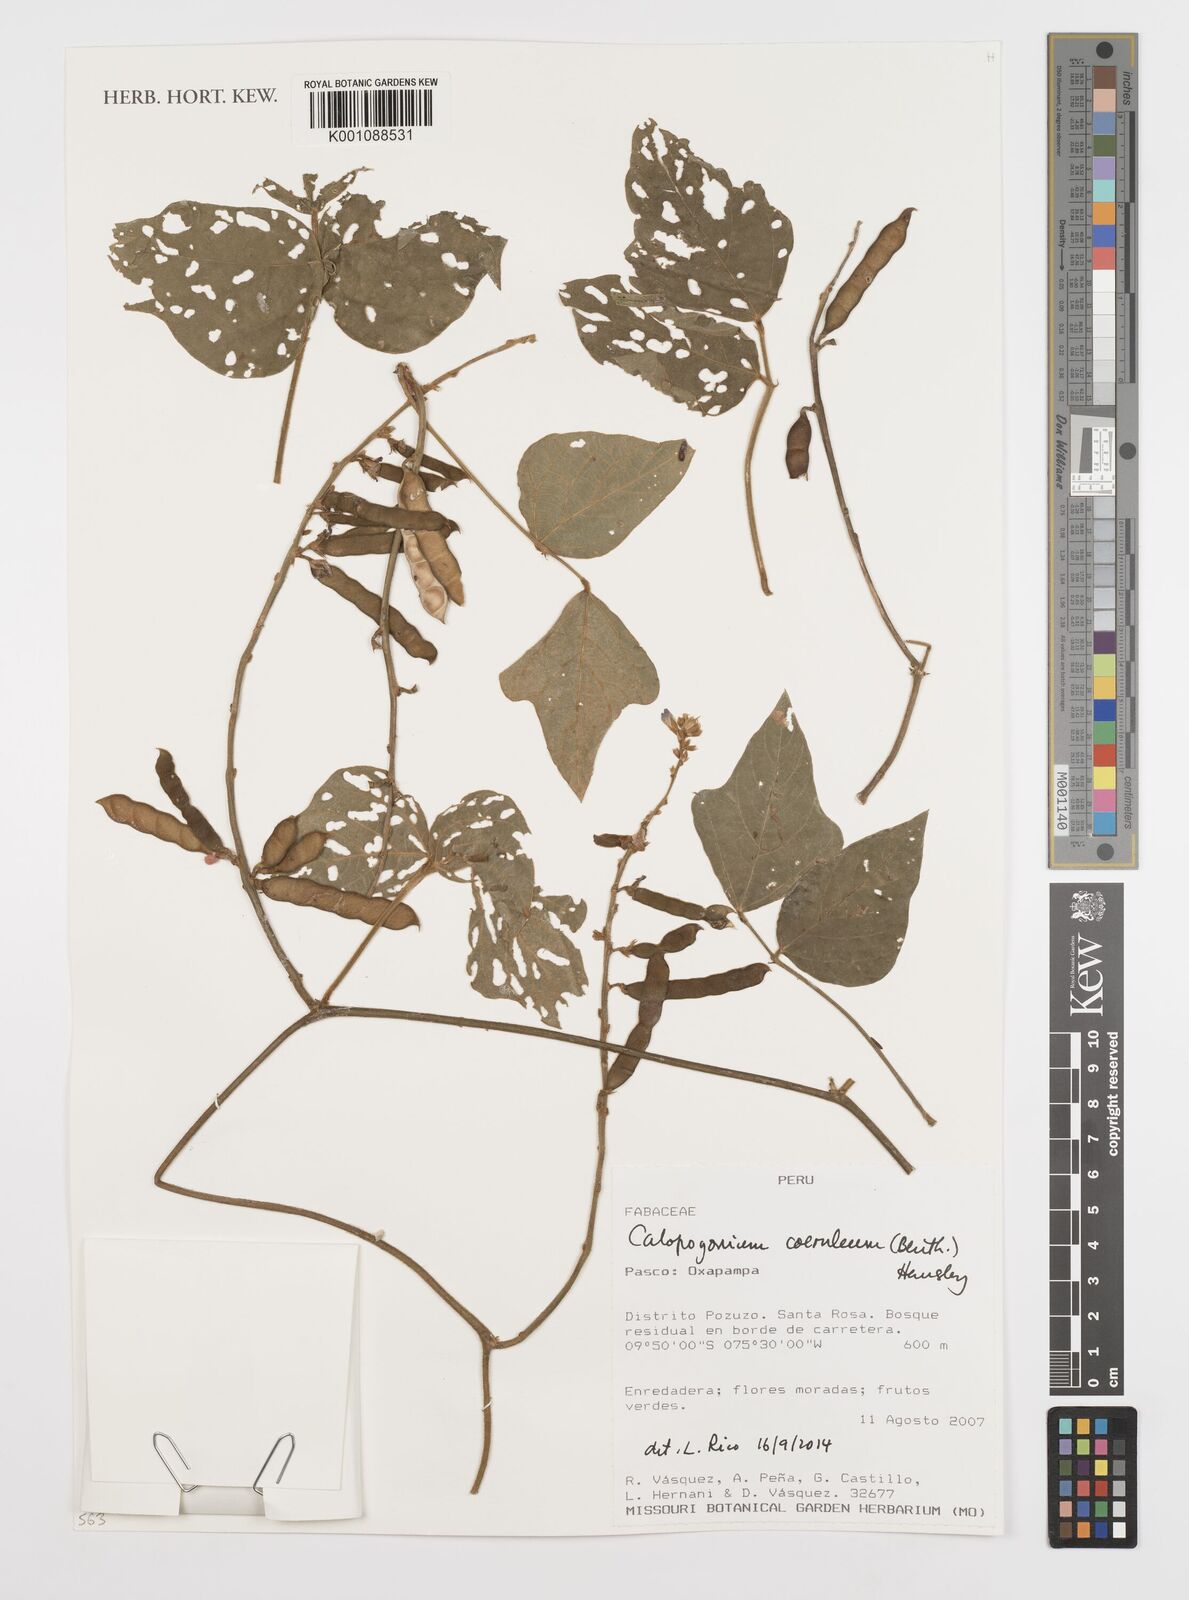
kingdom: Plantae
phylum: Tracheophyta
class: Magnoliopsida
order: Fabales
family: Fabaceae
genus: Calopogonium
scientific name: Calopogonium
